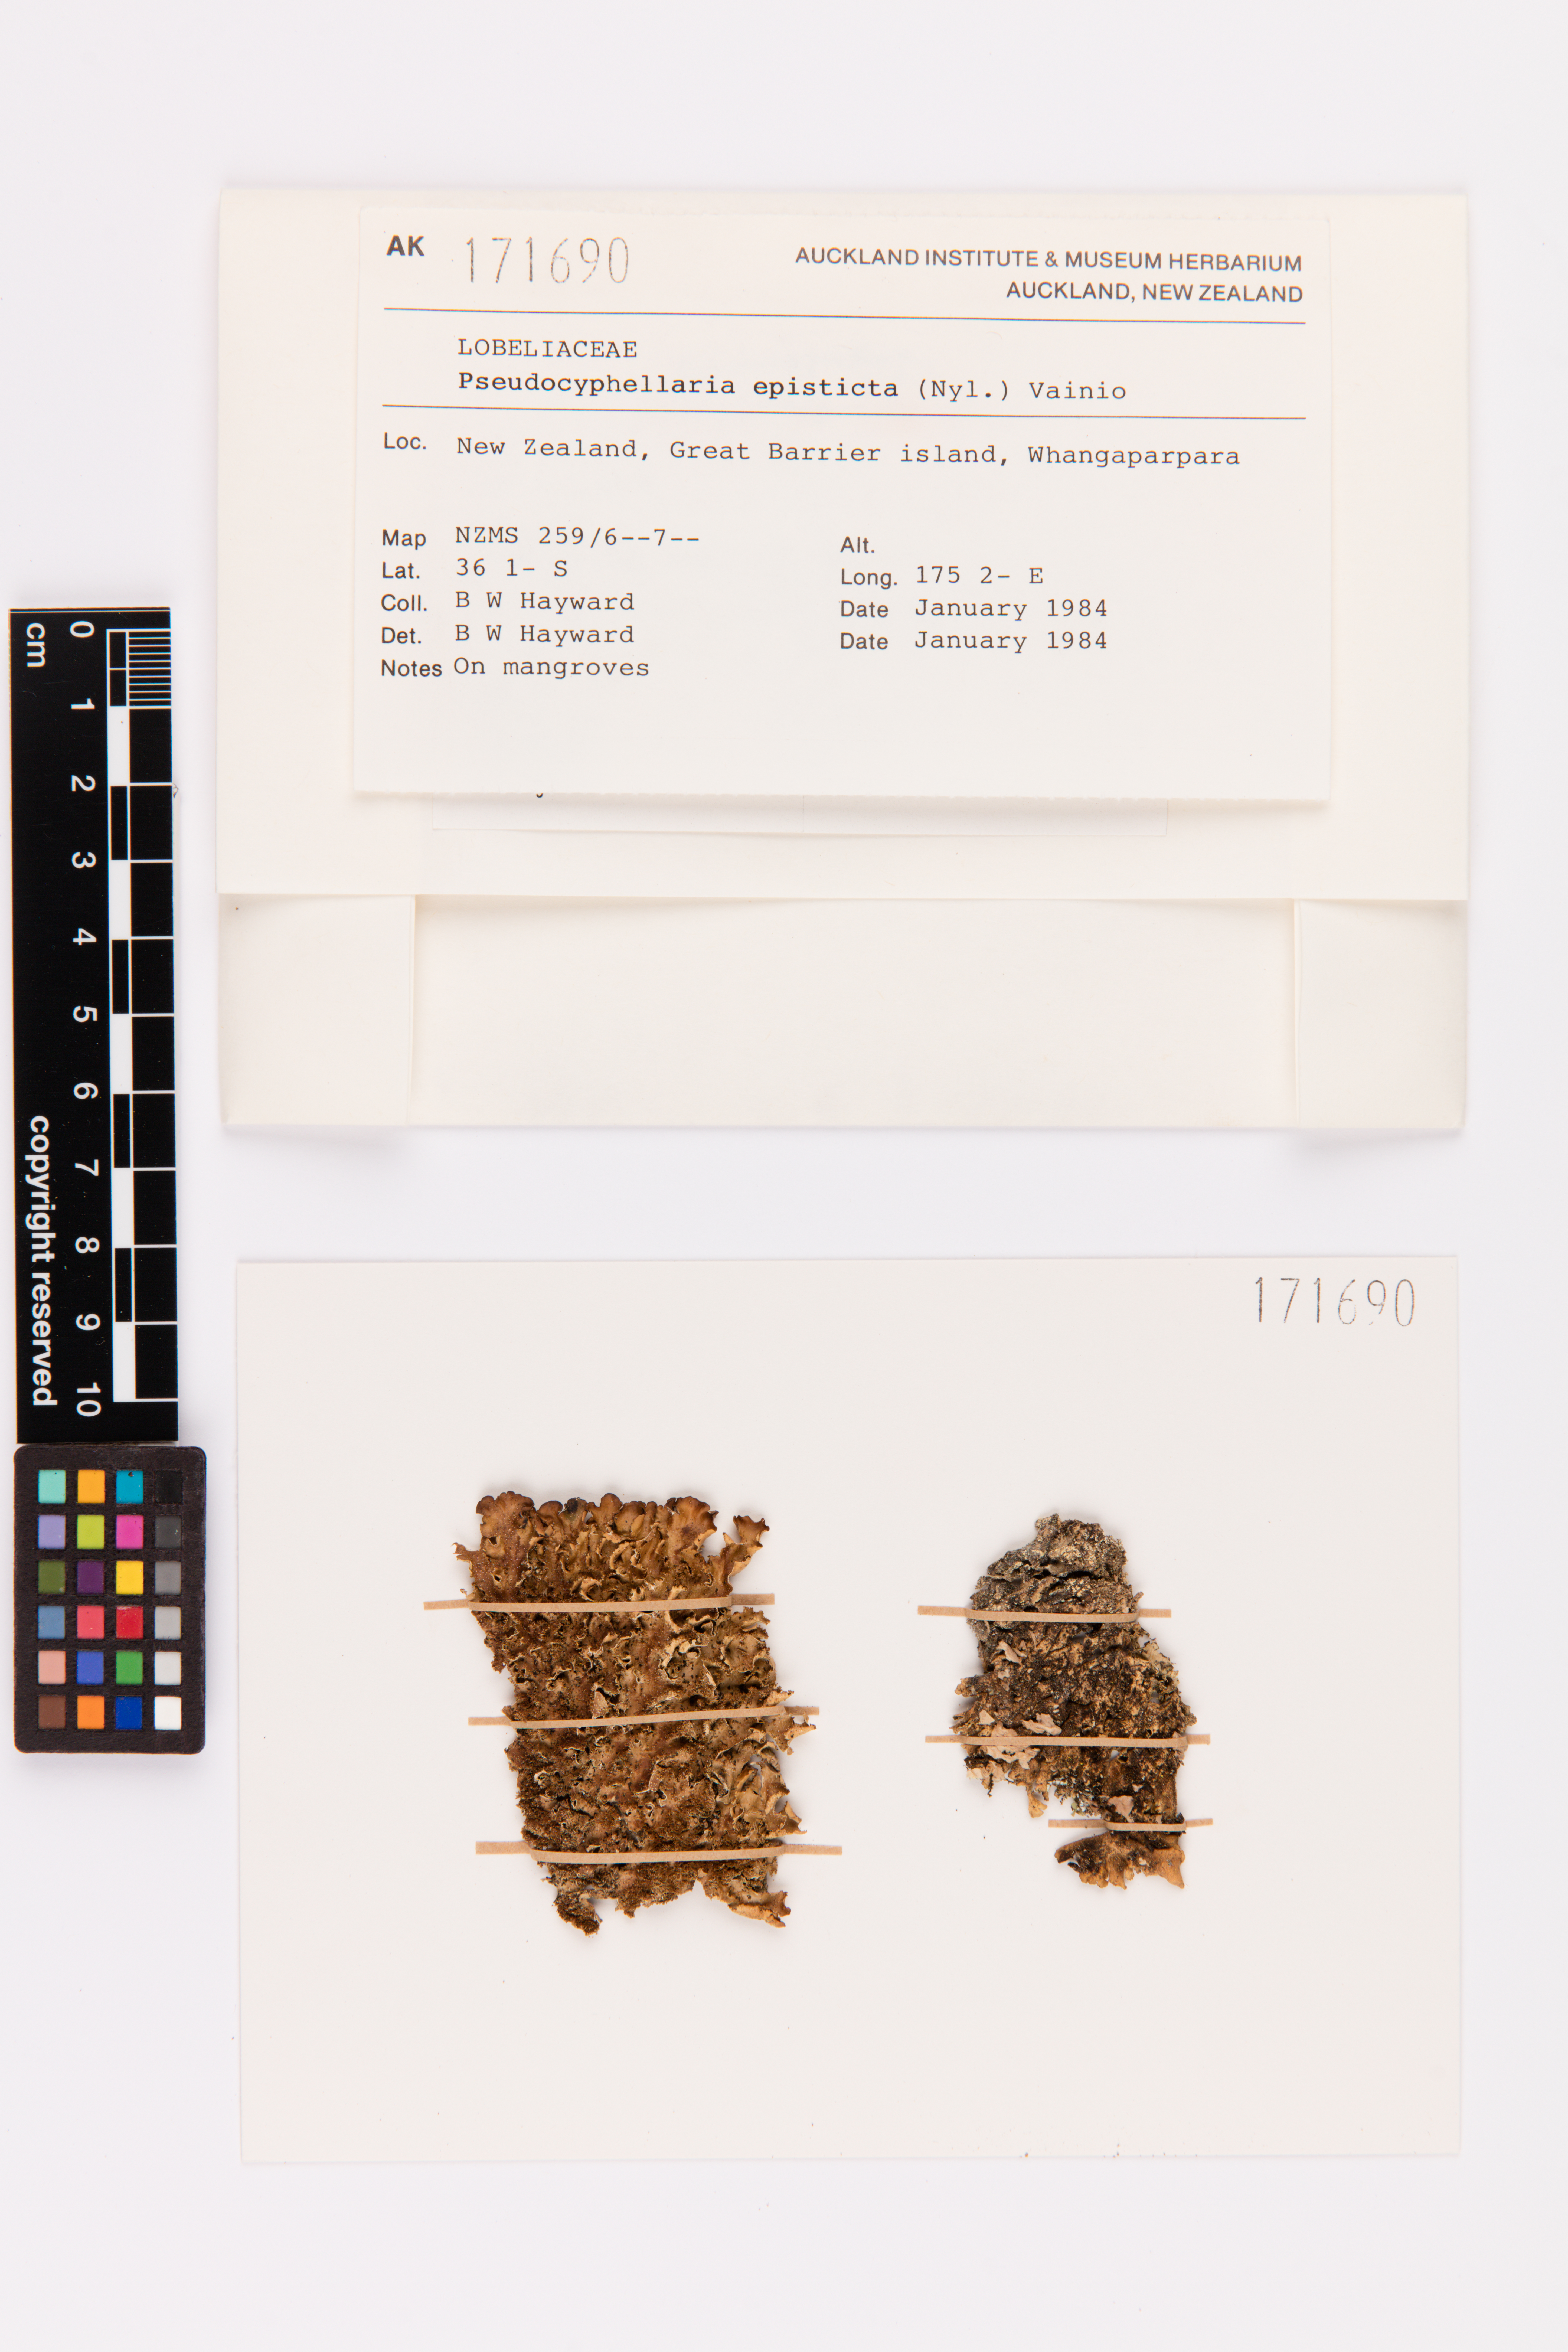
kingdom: Fungi
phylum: Ascomycota
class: Lecanoromycetes
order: Peltigerales
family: Lobariaceae
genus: Pseudocyphellaria
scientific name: Pseudocyphellaria episticta
